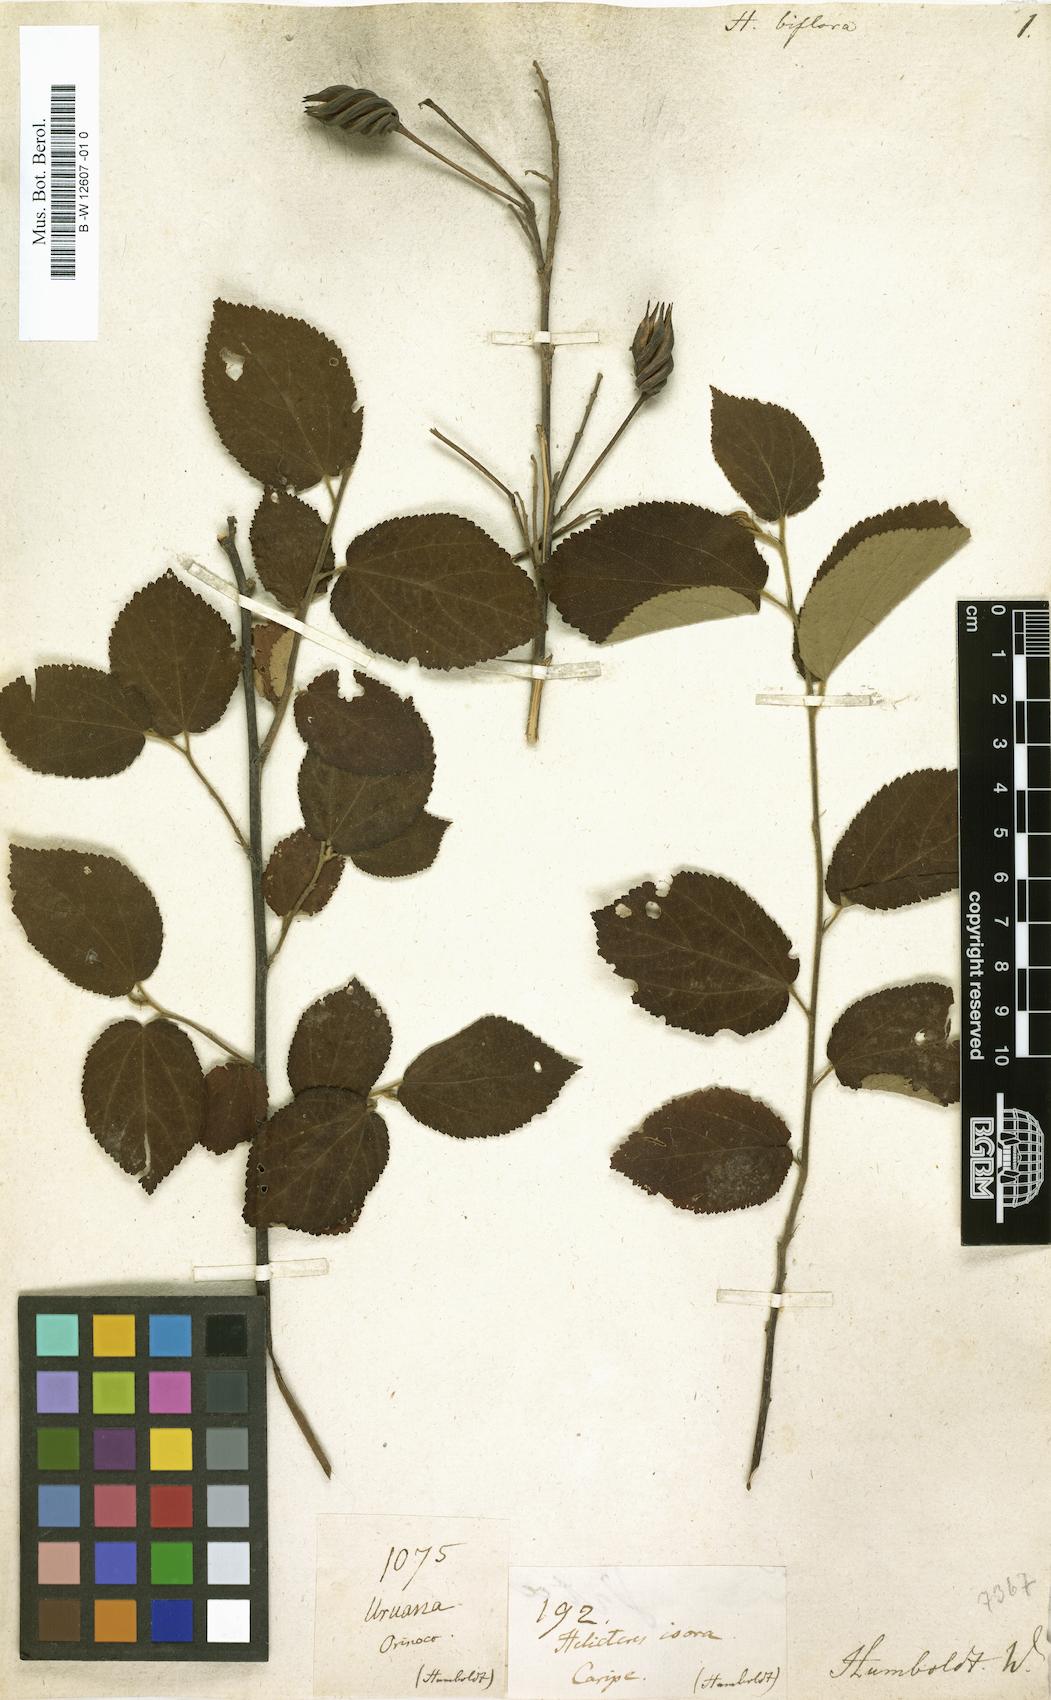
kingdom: Plantae
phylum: Tracheophyta
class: Magnoliopsida
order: Malvales
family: Malvaceae
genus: Helicteres
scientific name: Helicteres guazumifolia
